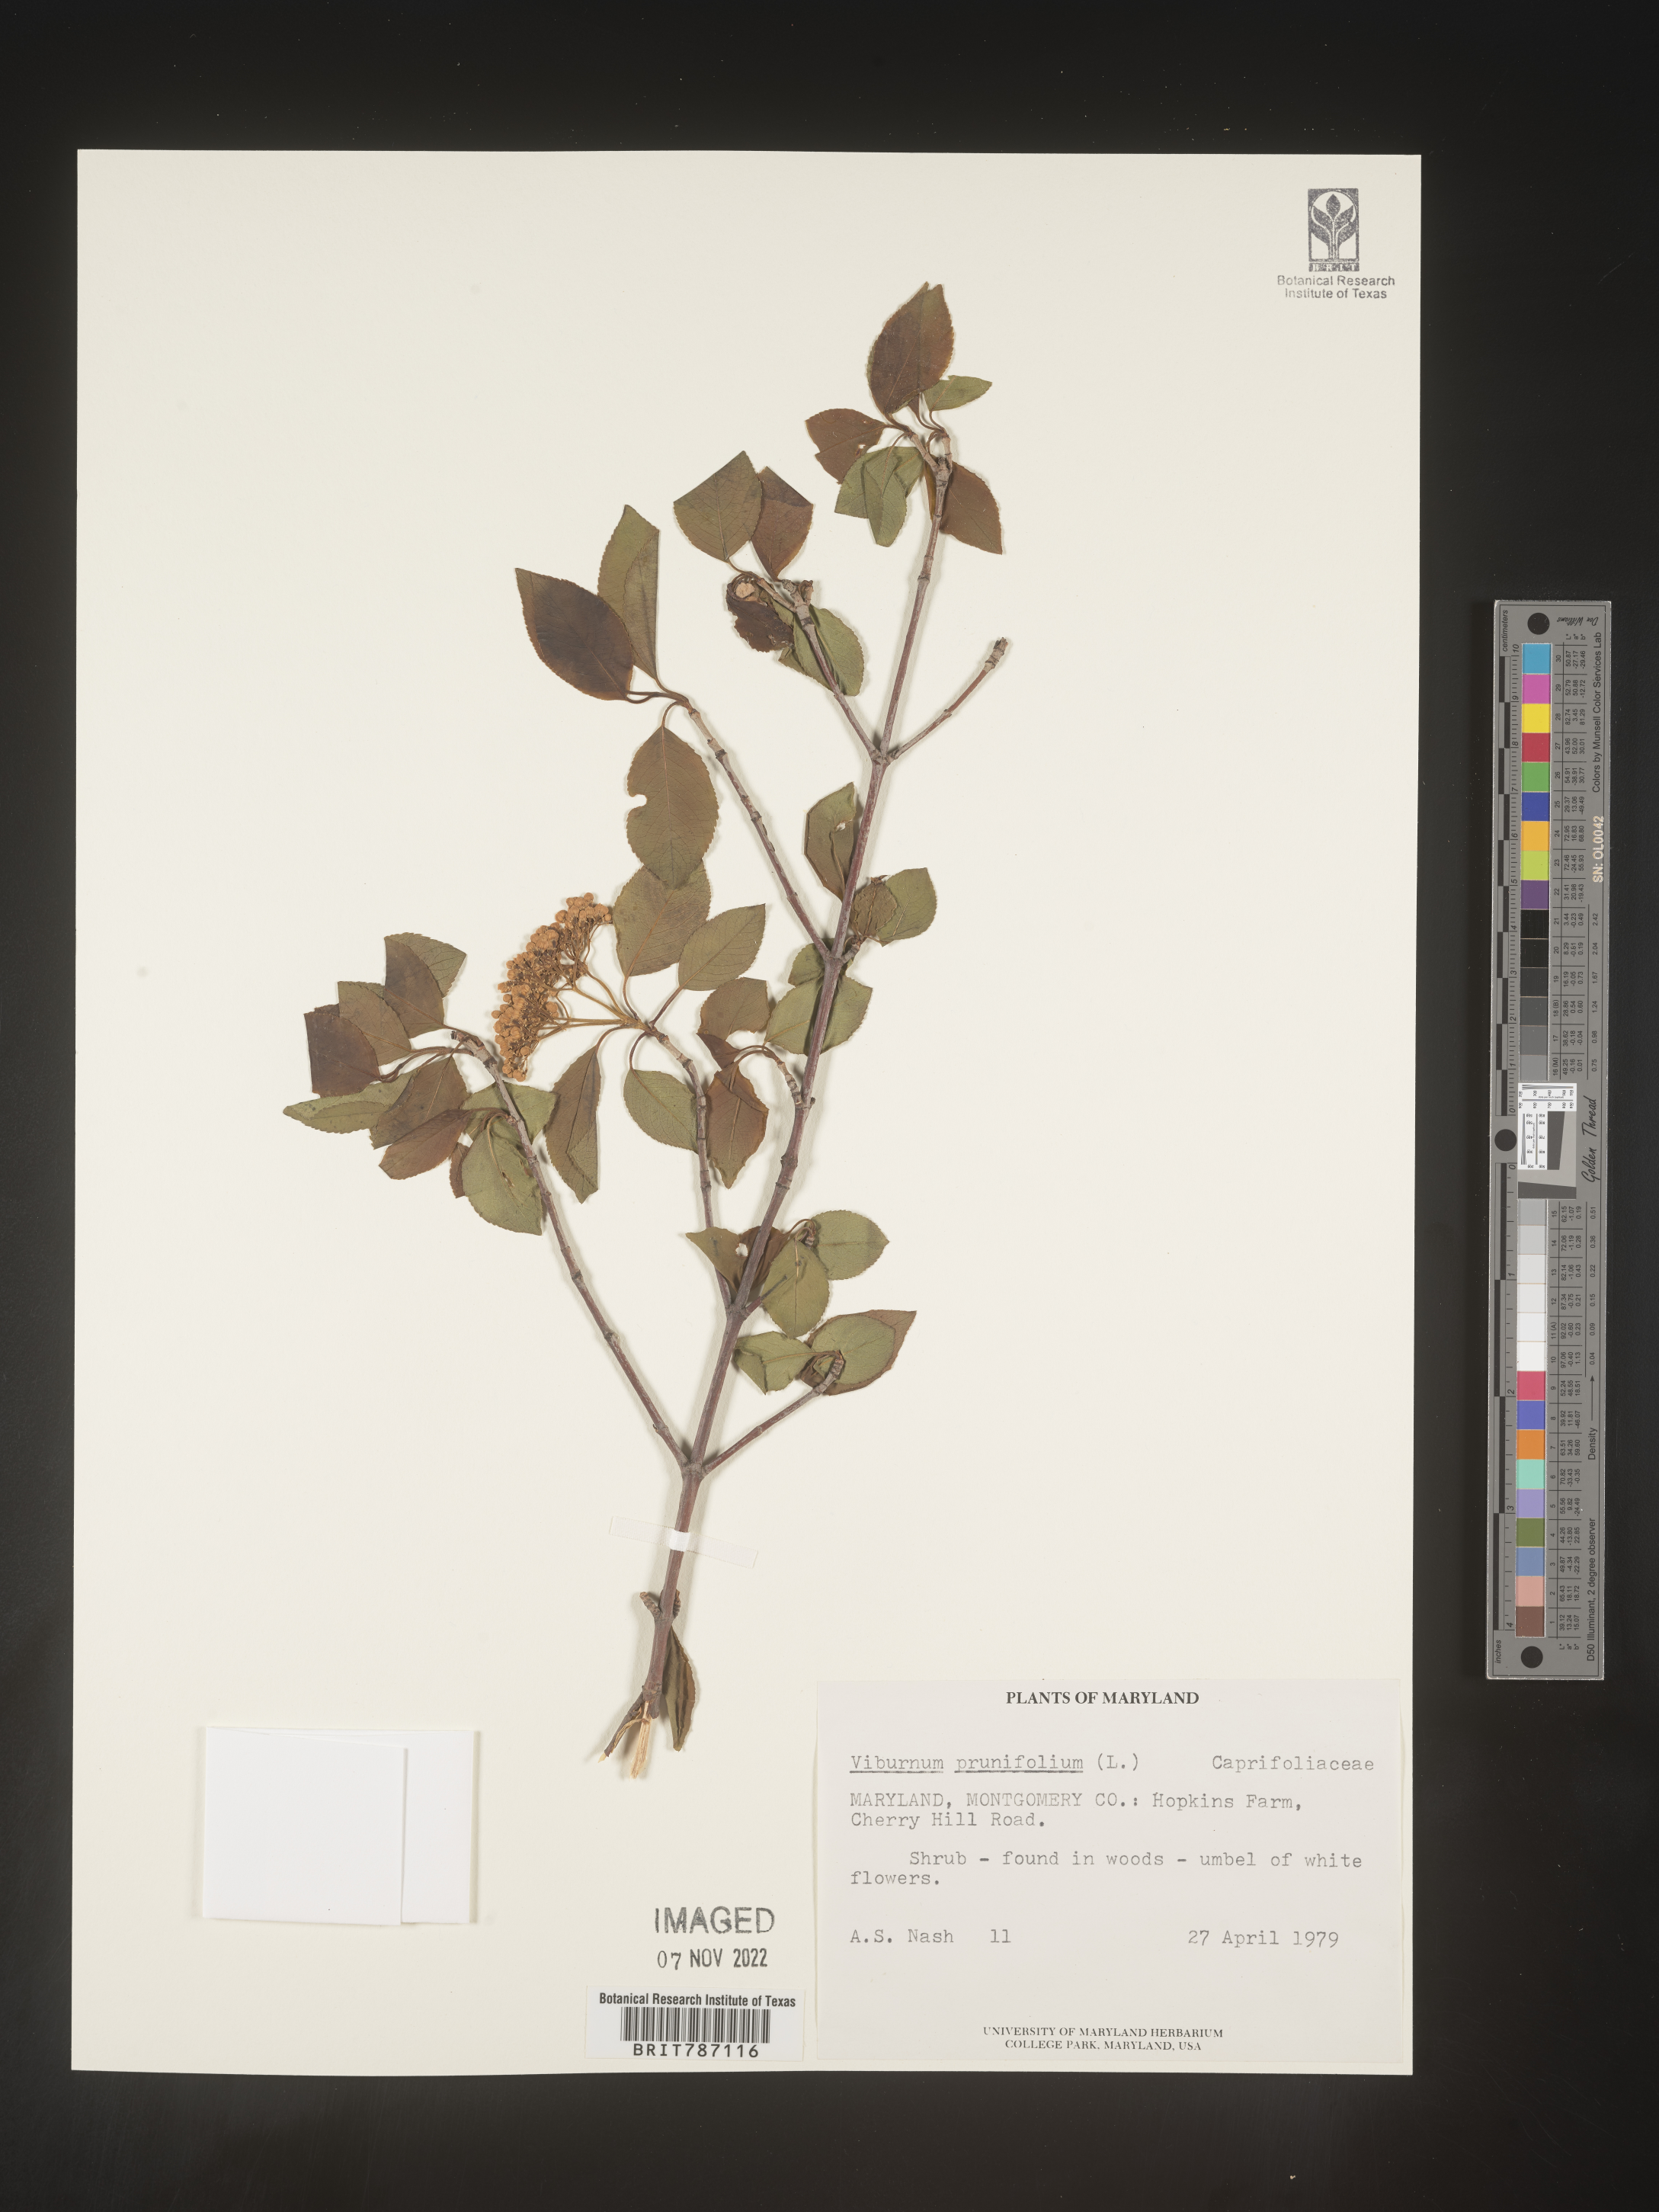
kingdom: Plantae
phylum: Tracheophyta
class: Magnoliopsida
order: Dipsacales
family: Viburnaceae
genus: Viburnum
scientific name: Viburnum prunifolium
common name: Black haw
